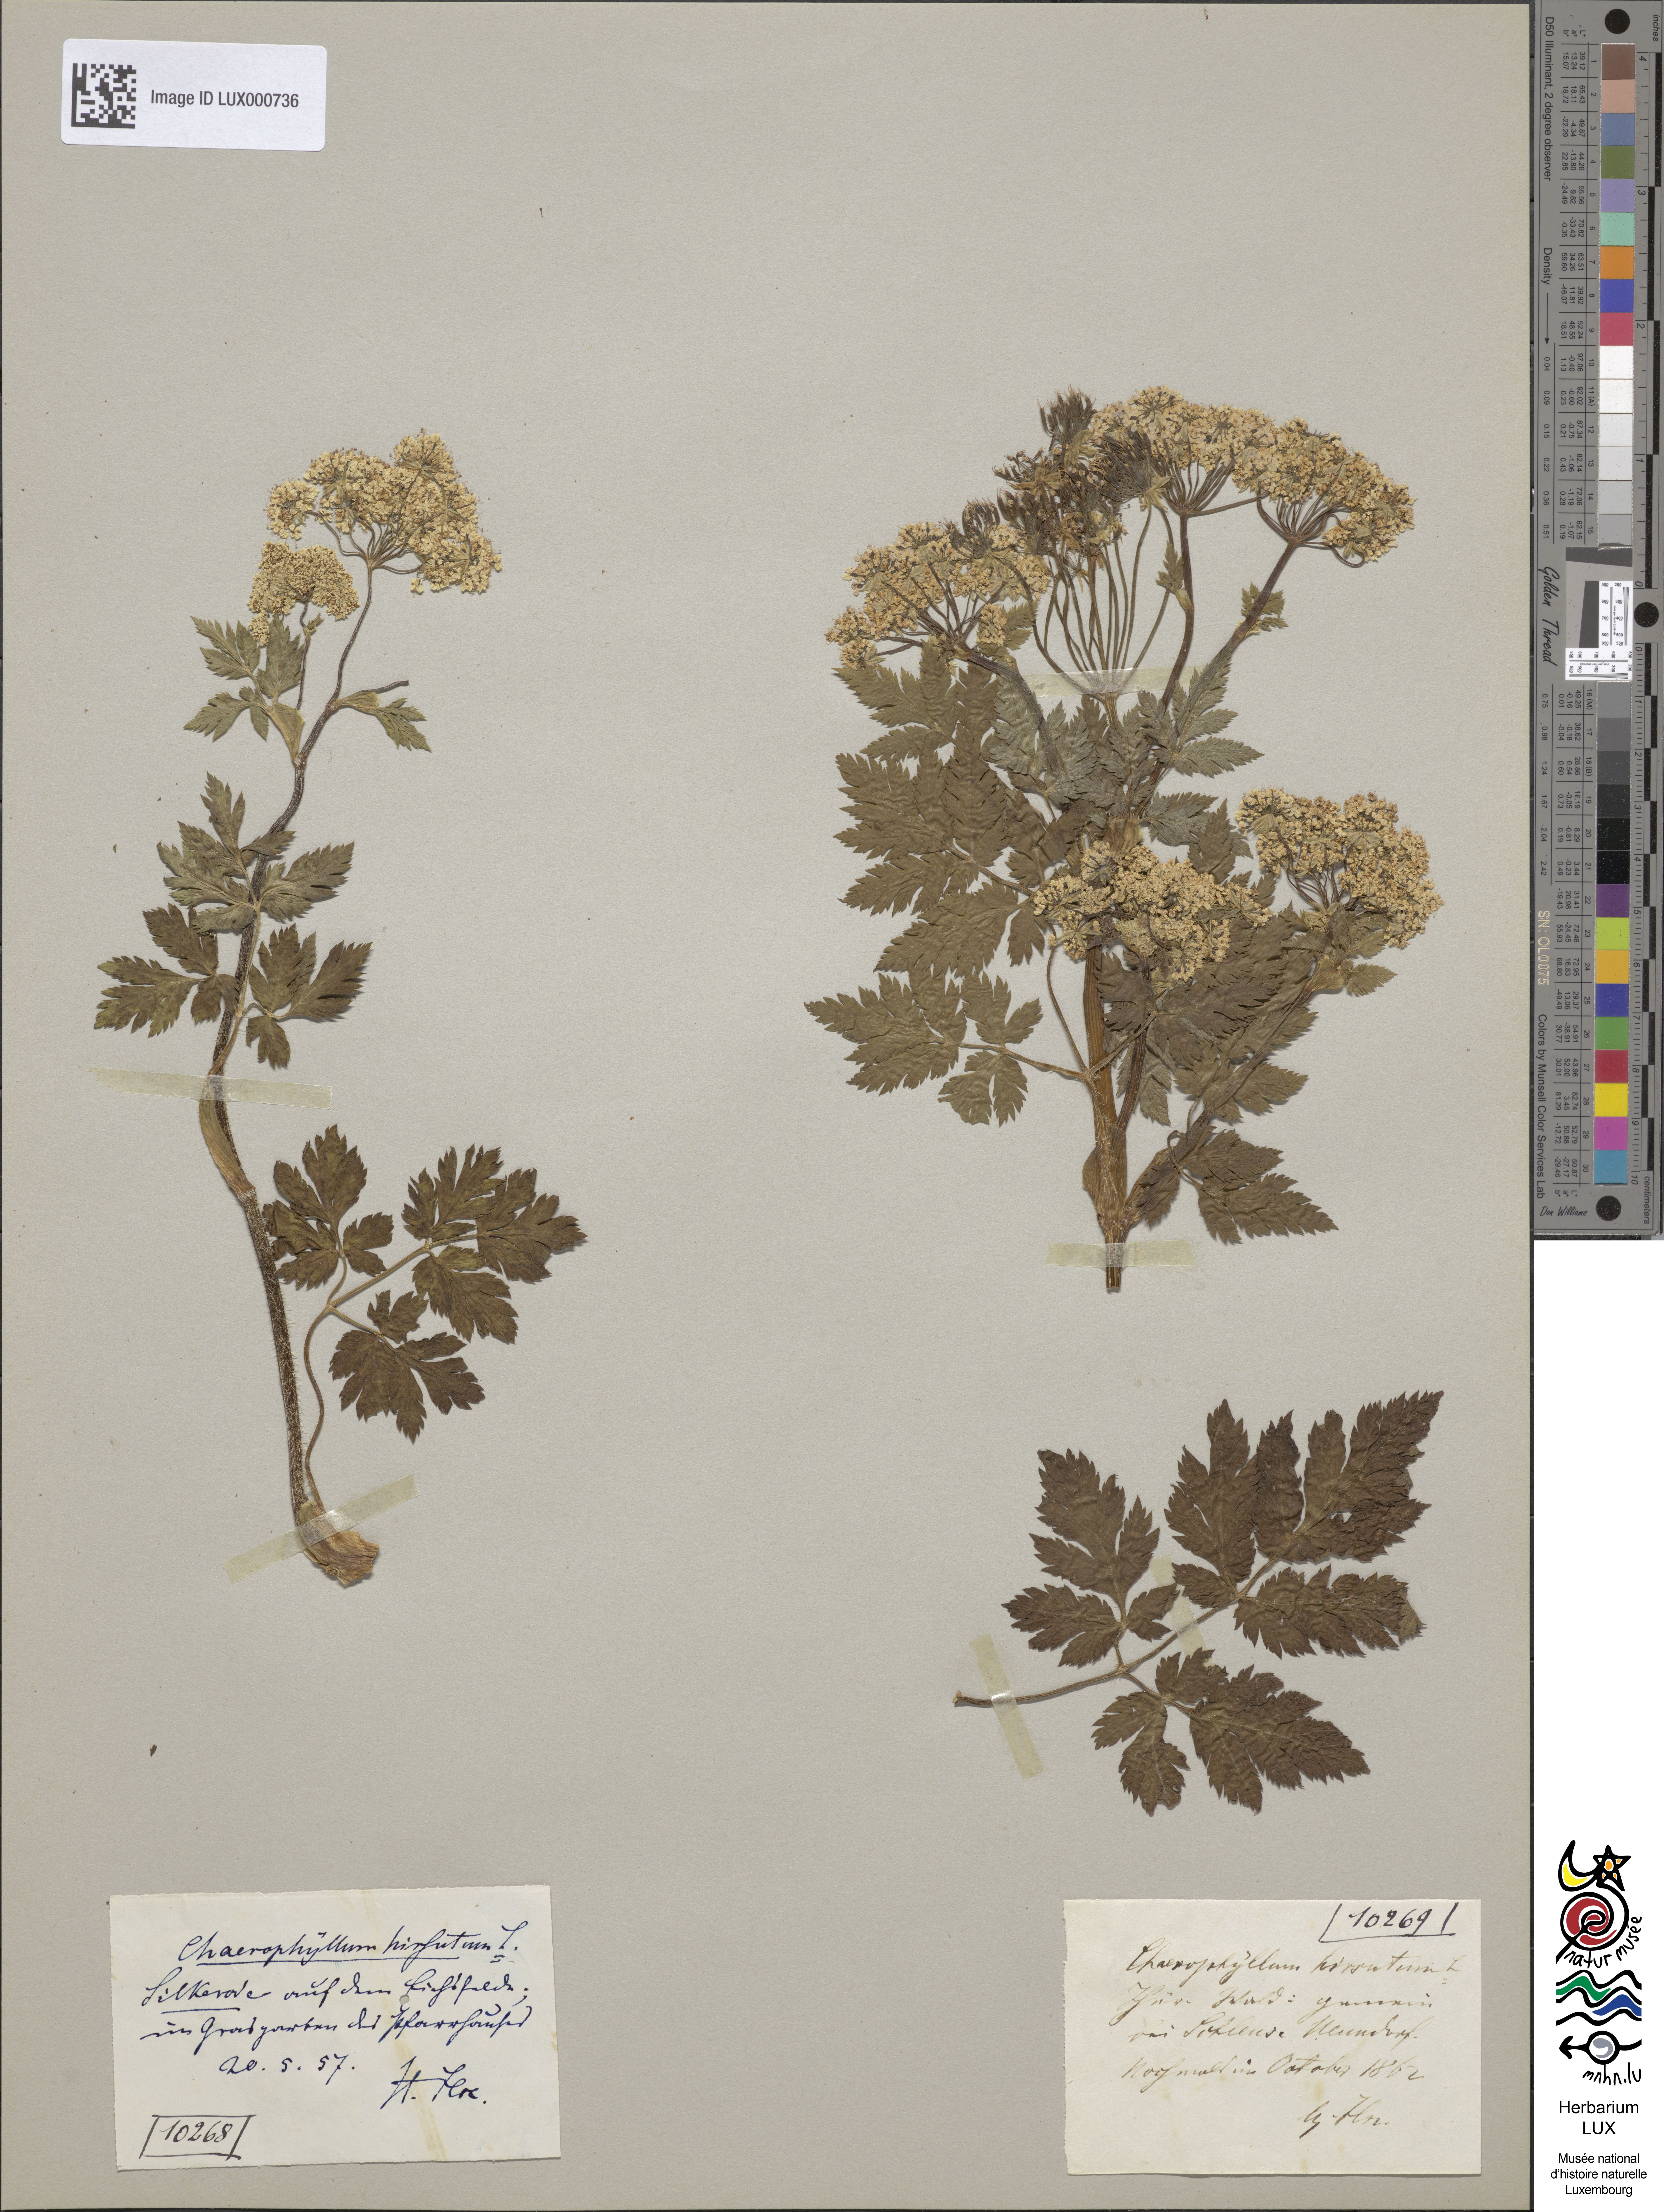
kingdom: Plantae
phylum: Tracheophyta
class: Magnoliopsida
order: Apiales
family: Apiaceae
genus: Chaerophyllum
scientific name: Chaerophyllum hirsutum
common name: Hairy chervil
